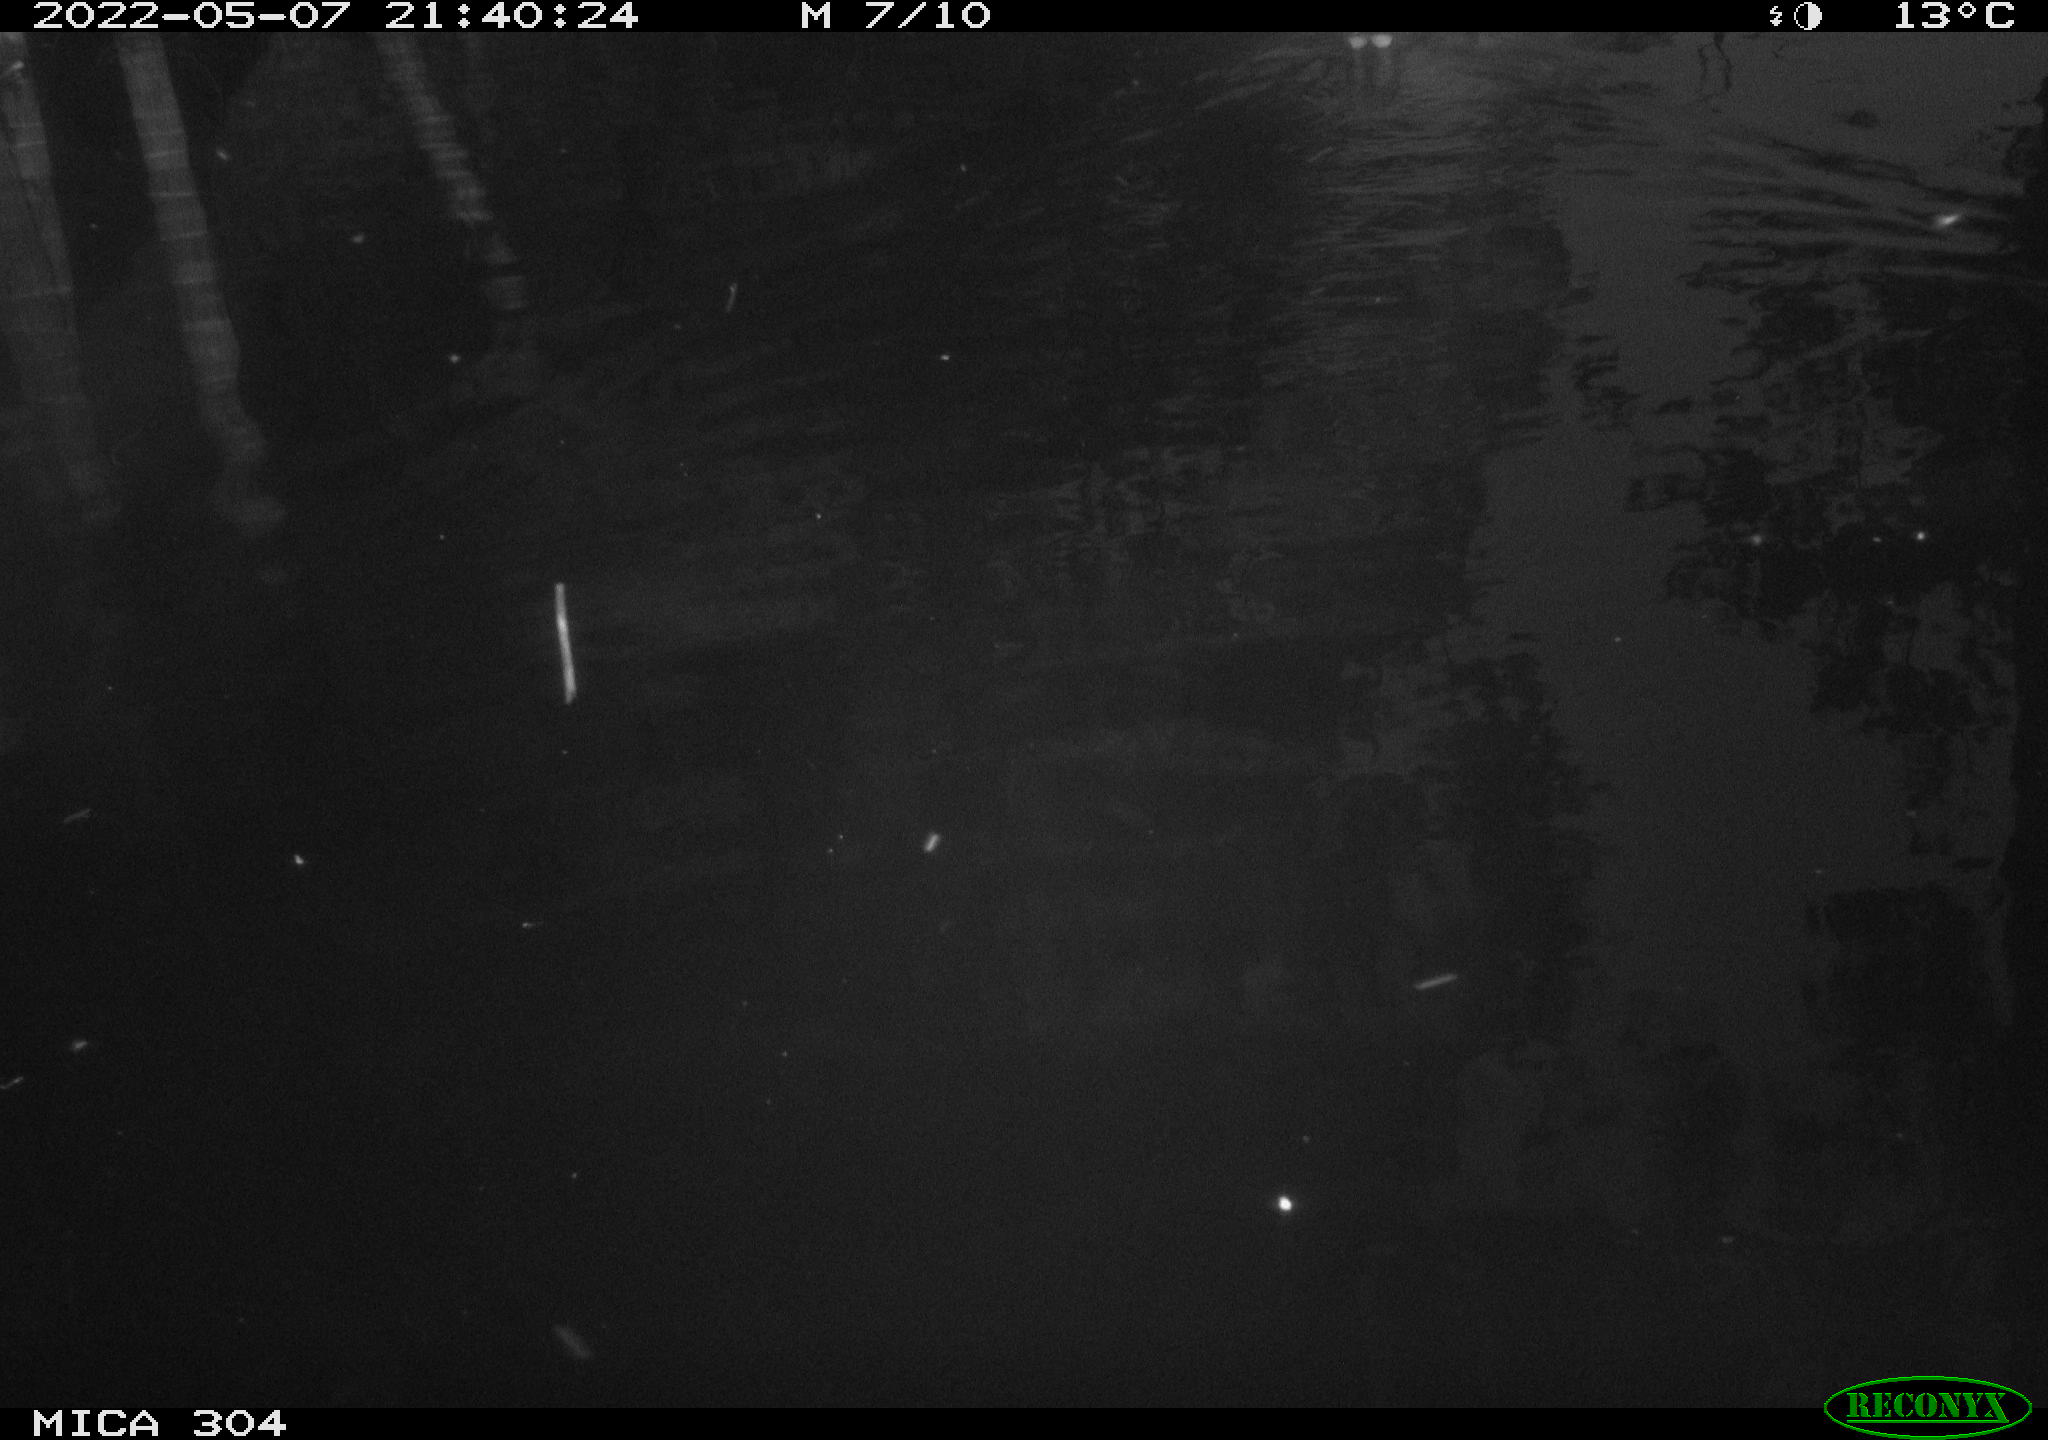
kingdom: Animalia
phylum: Chordata
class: Aves
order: Gruiformes
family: Rallidae
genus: Gallinula
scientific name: Gallinula chloropus
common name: Common moorhen
